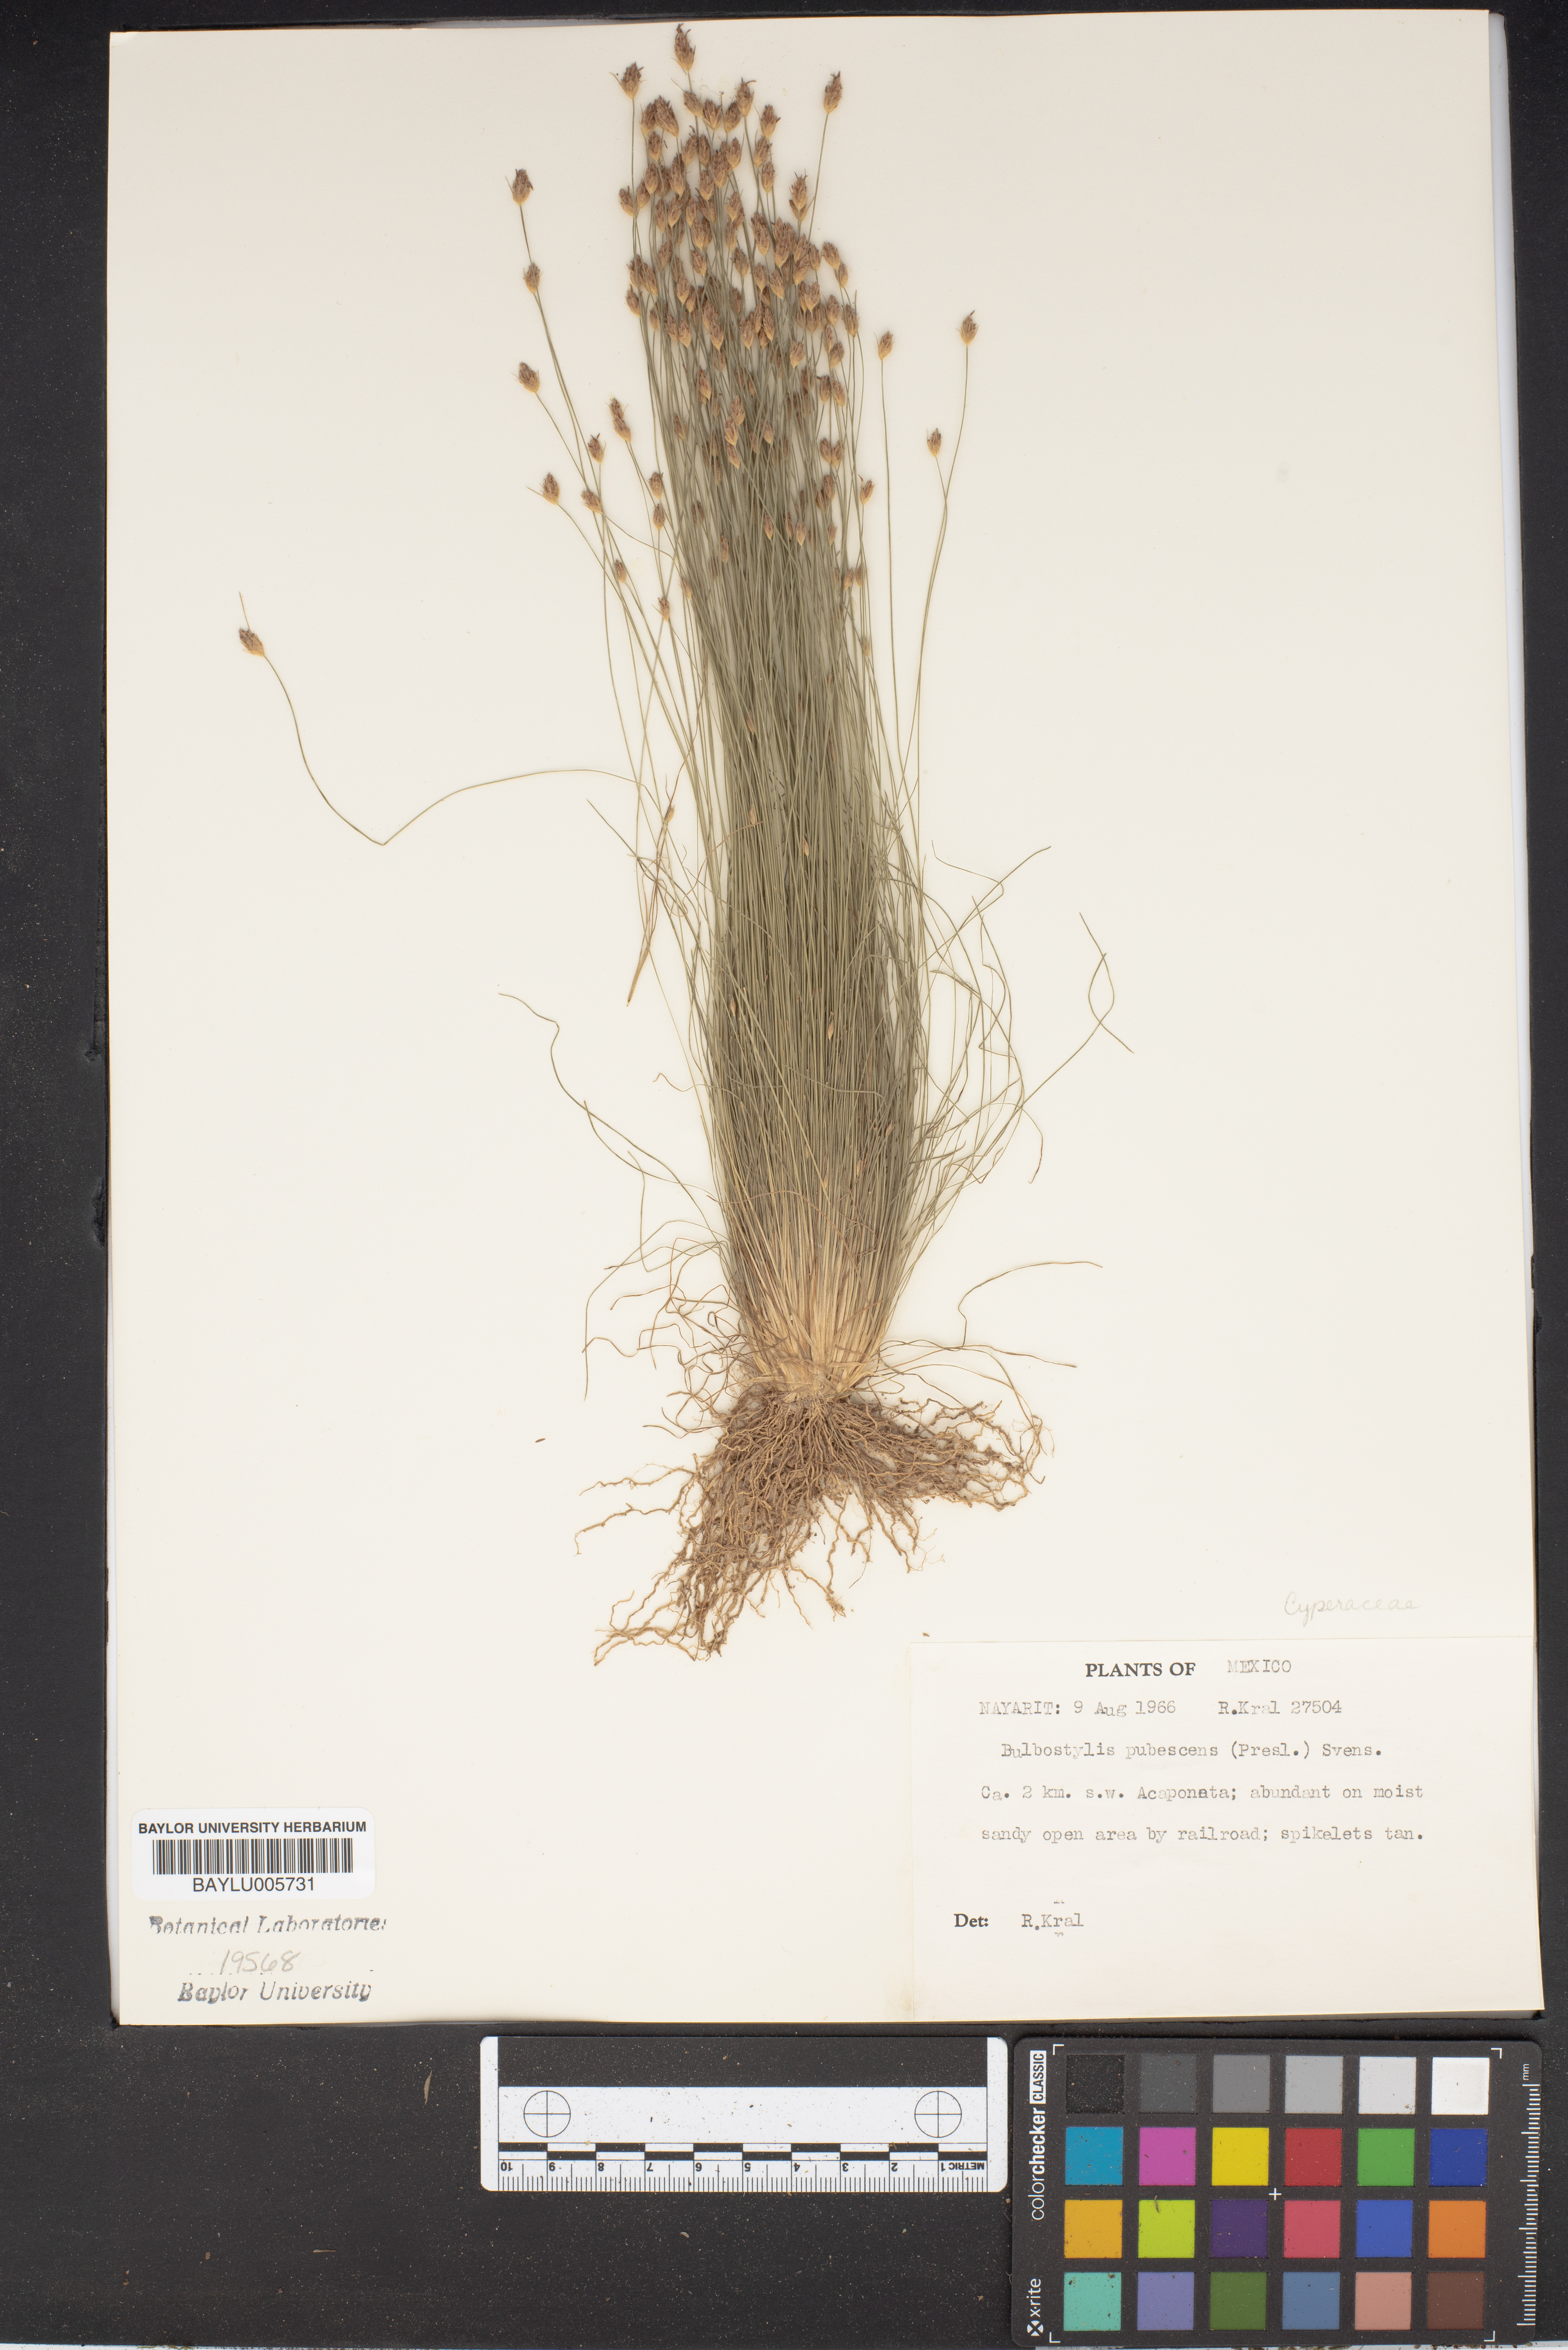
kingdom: Plantae
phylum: Tracheophyta
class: Liliopsida
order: Poales
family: Cyperaceae
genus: Bulbostylis
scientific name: Bulbostylis pubescens
